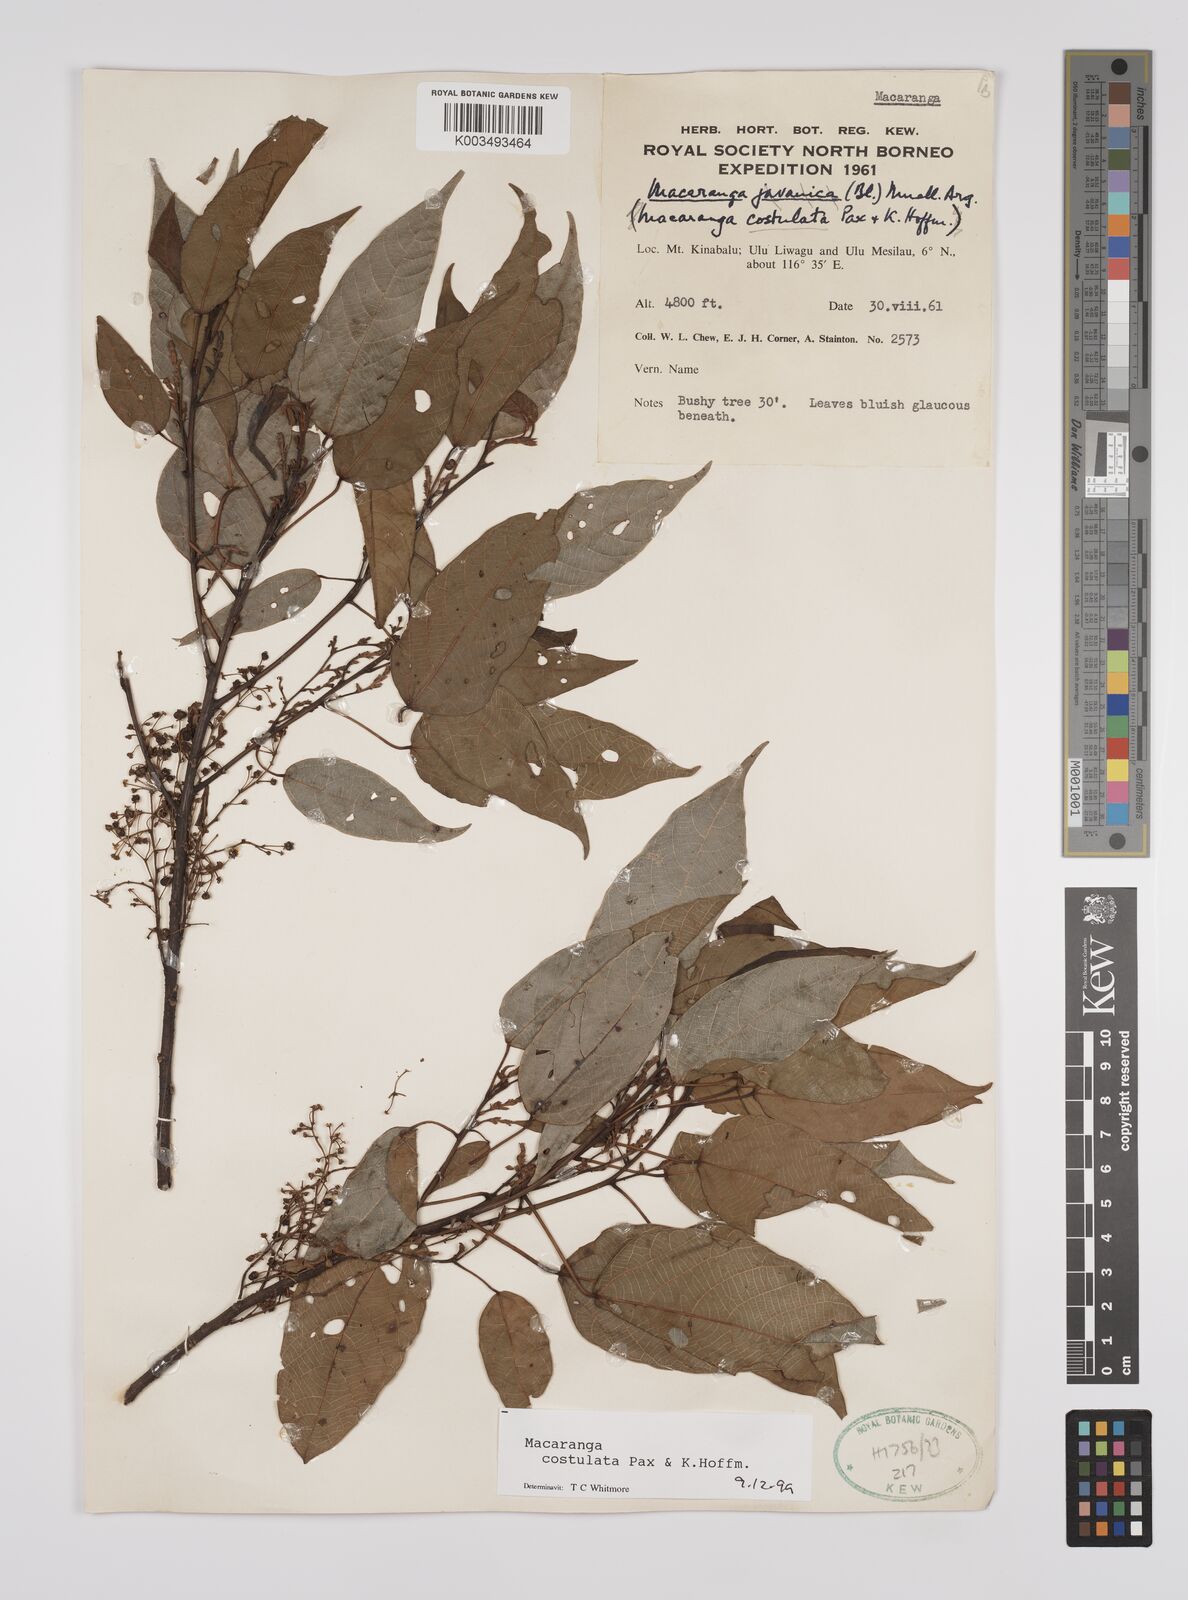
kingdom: Plantae
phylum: Tracheophyta
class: Magnoliopsida
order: Malpighiales
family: Euphorbiaceae
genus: Macaranga
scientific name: Macaranga costulata
